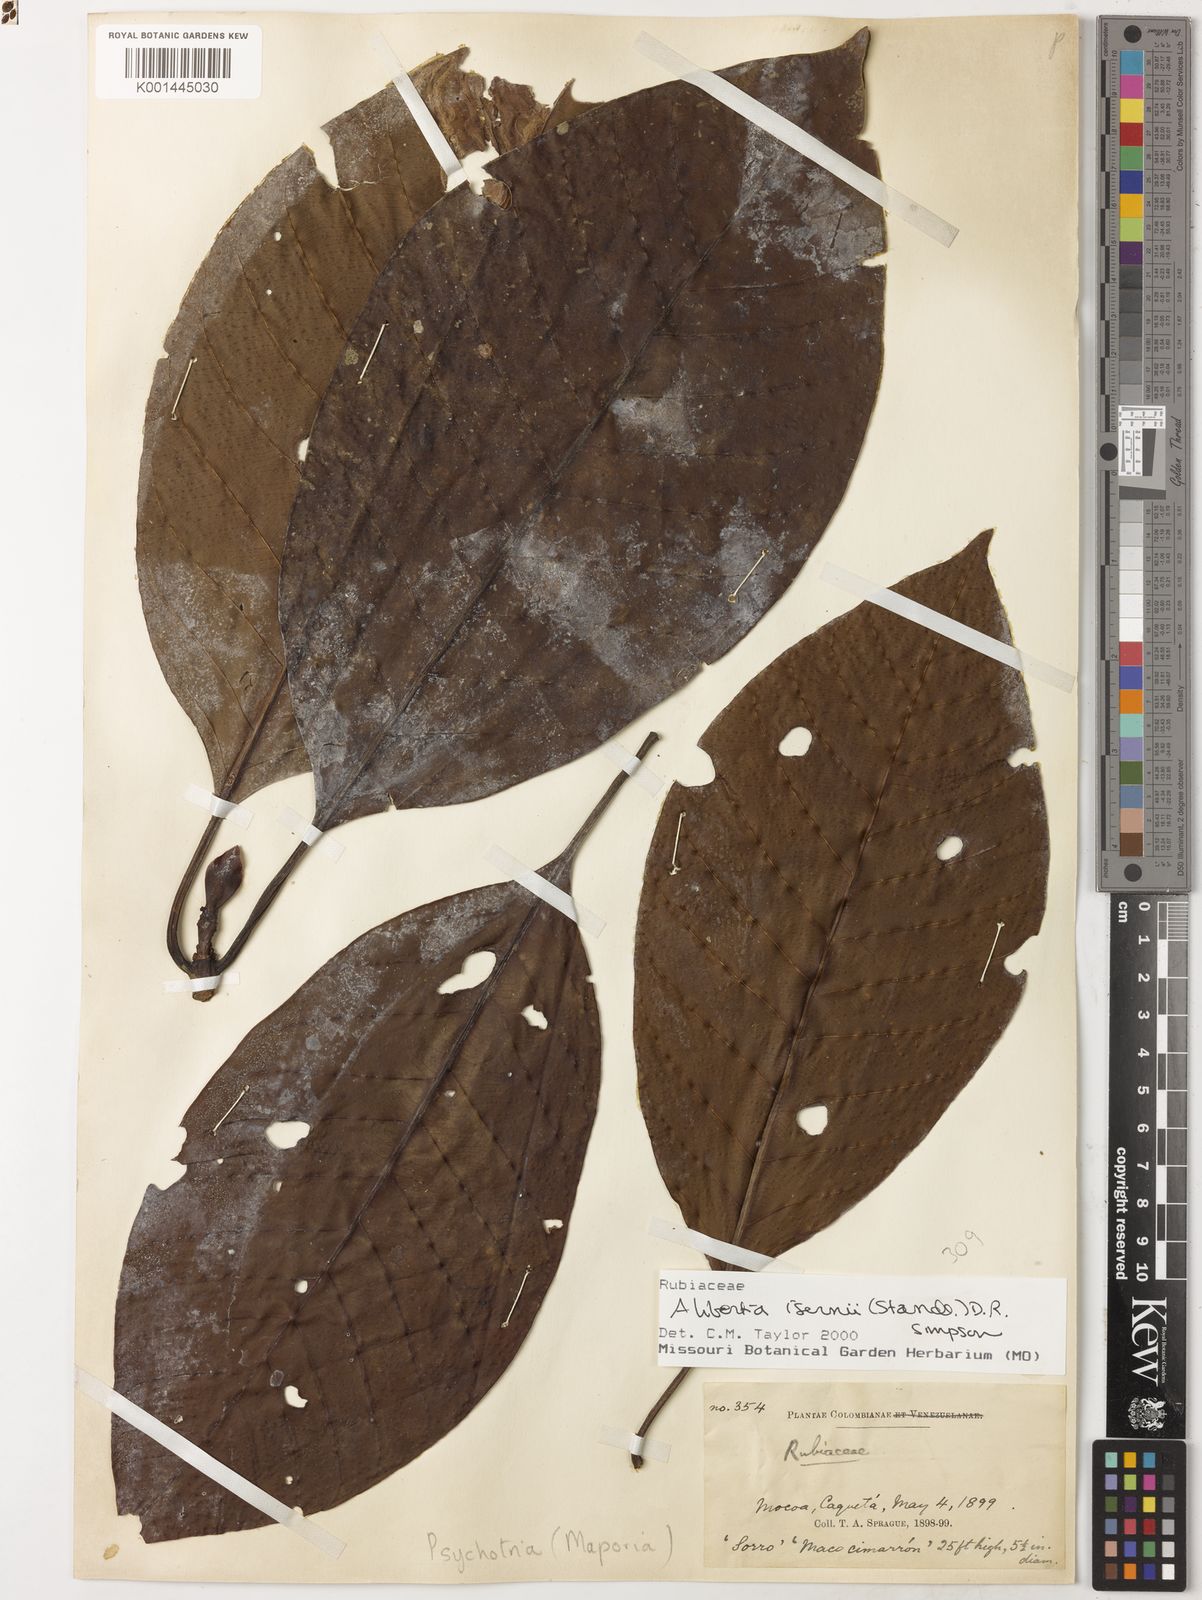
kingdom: Plantae
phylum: Tracheophyta
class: Magnoliopsida
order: Gentianales
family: Rubiaceae
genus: Agouticarpa
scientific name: Agouticarpa isernii
